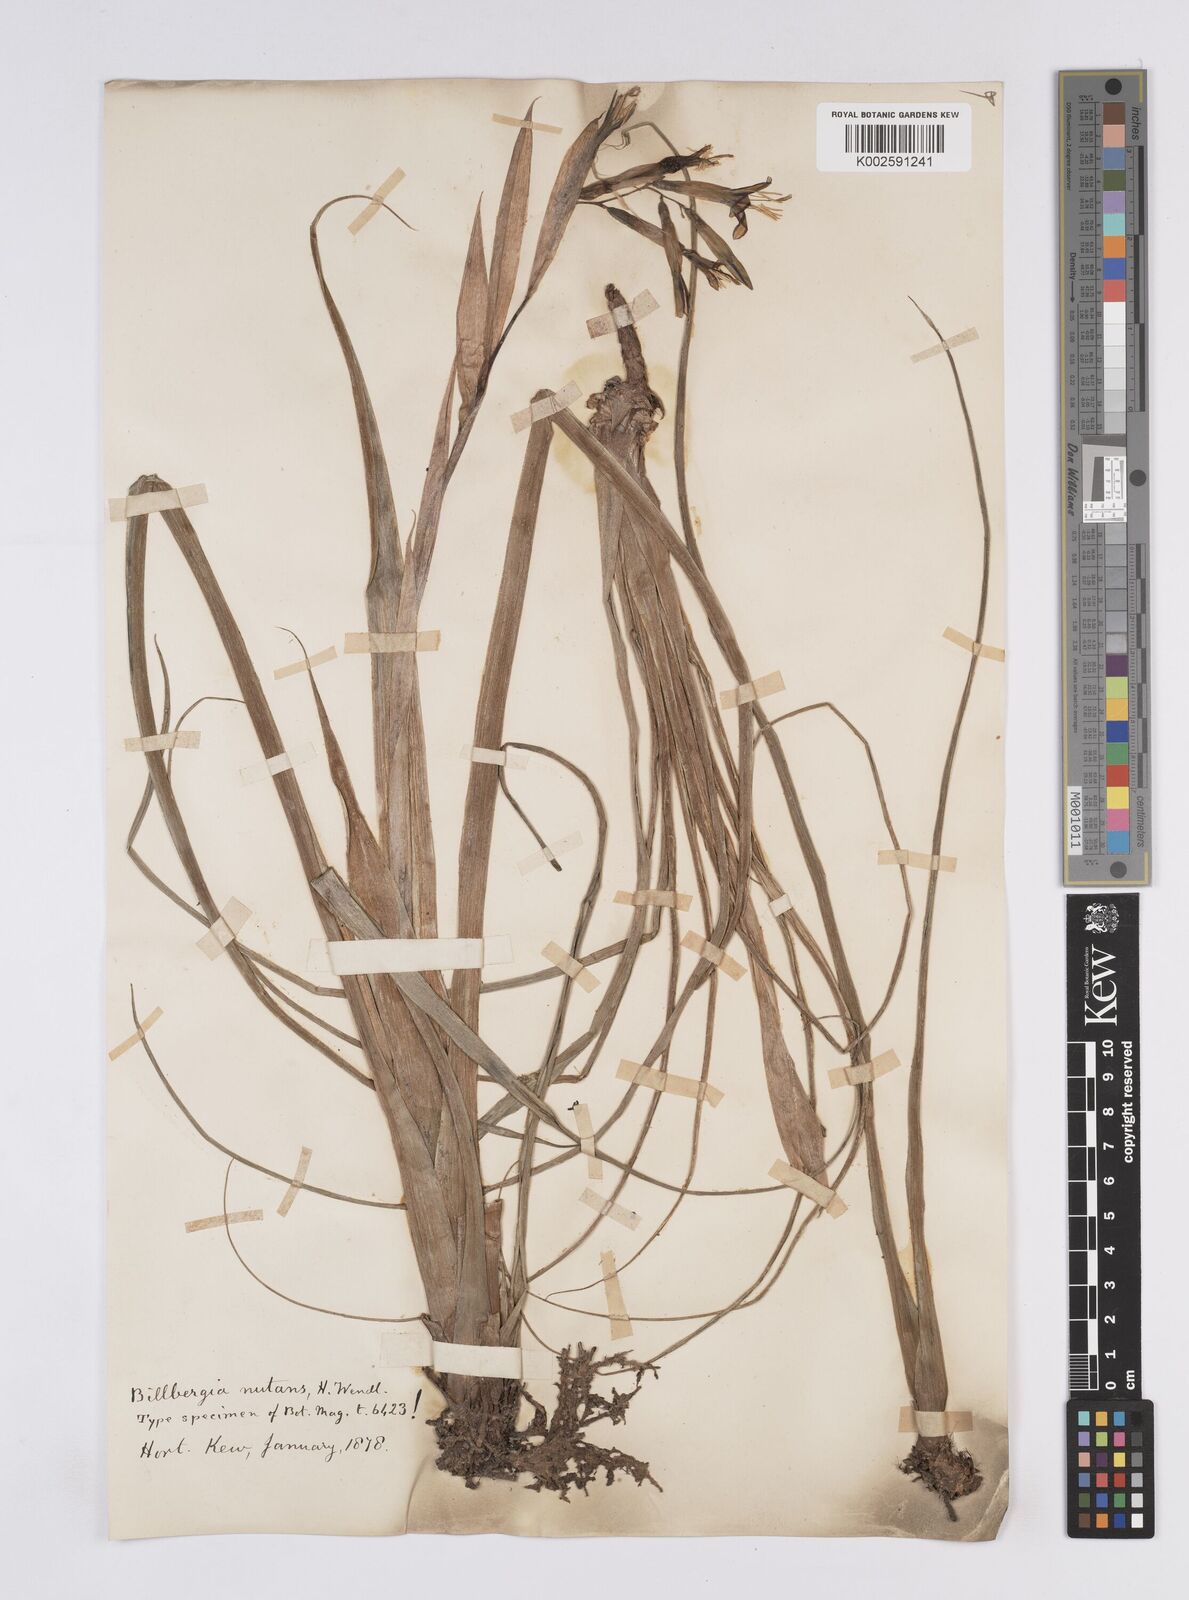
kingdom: Plantae
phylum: Tracheophyta
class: Liliopsida
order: Poales
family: Bromeliaceae
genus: Billbergia
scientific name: Billbergia nutans
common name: Friendship-plant
